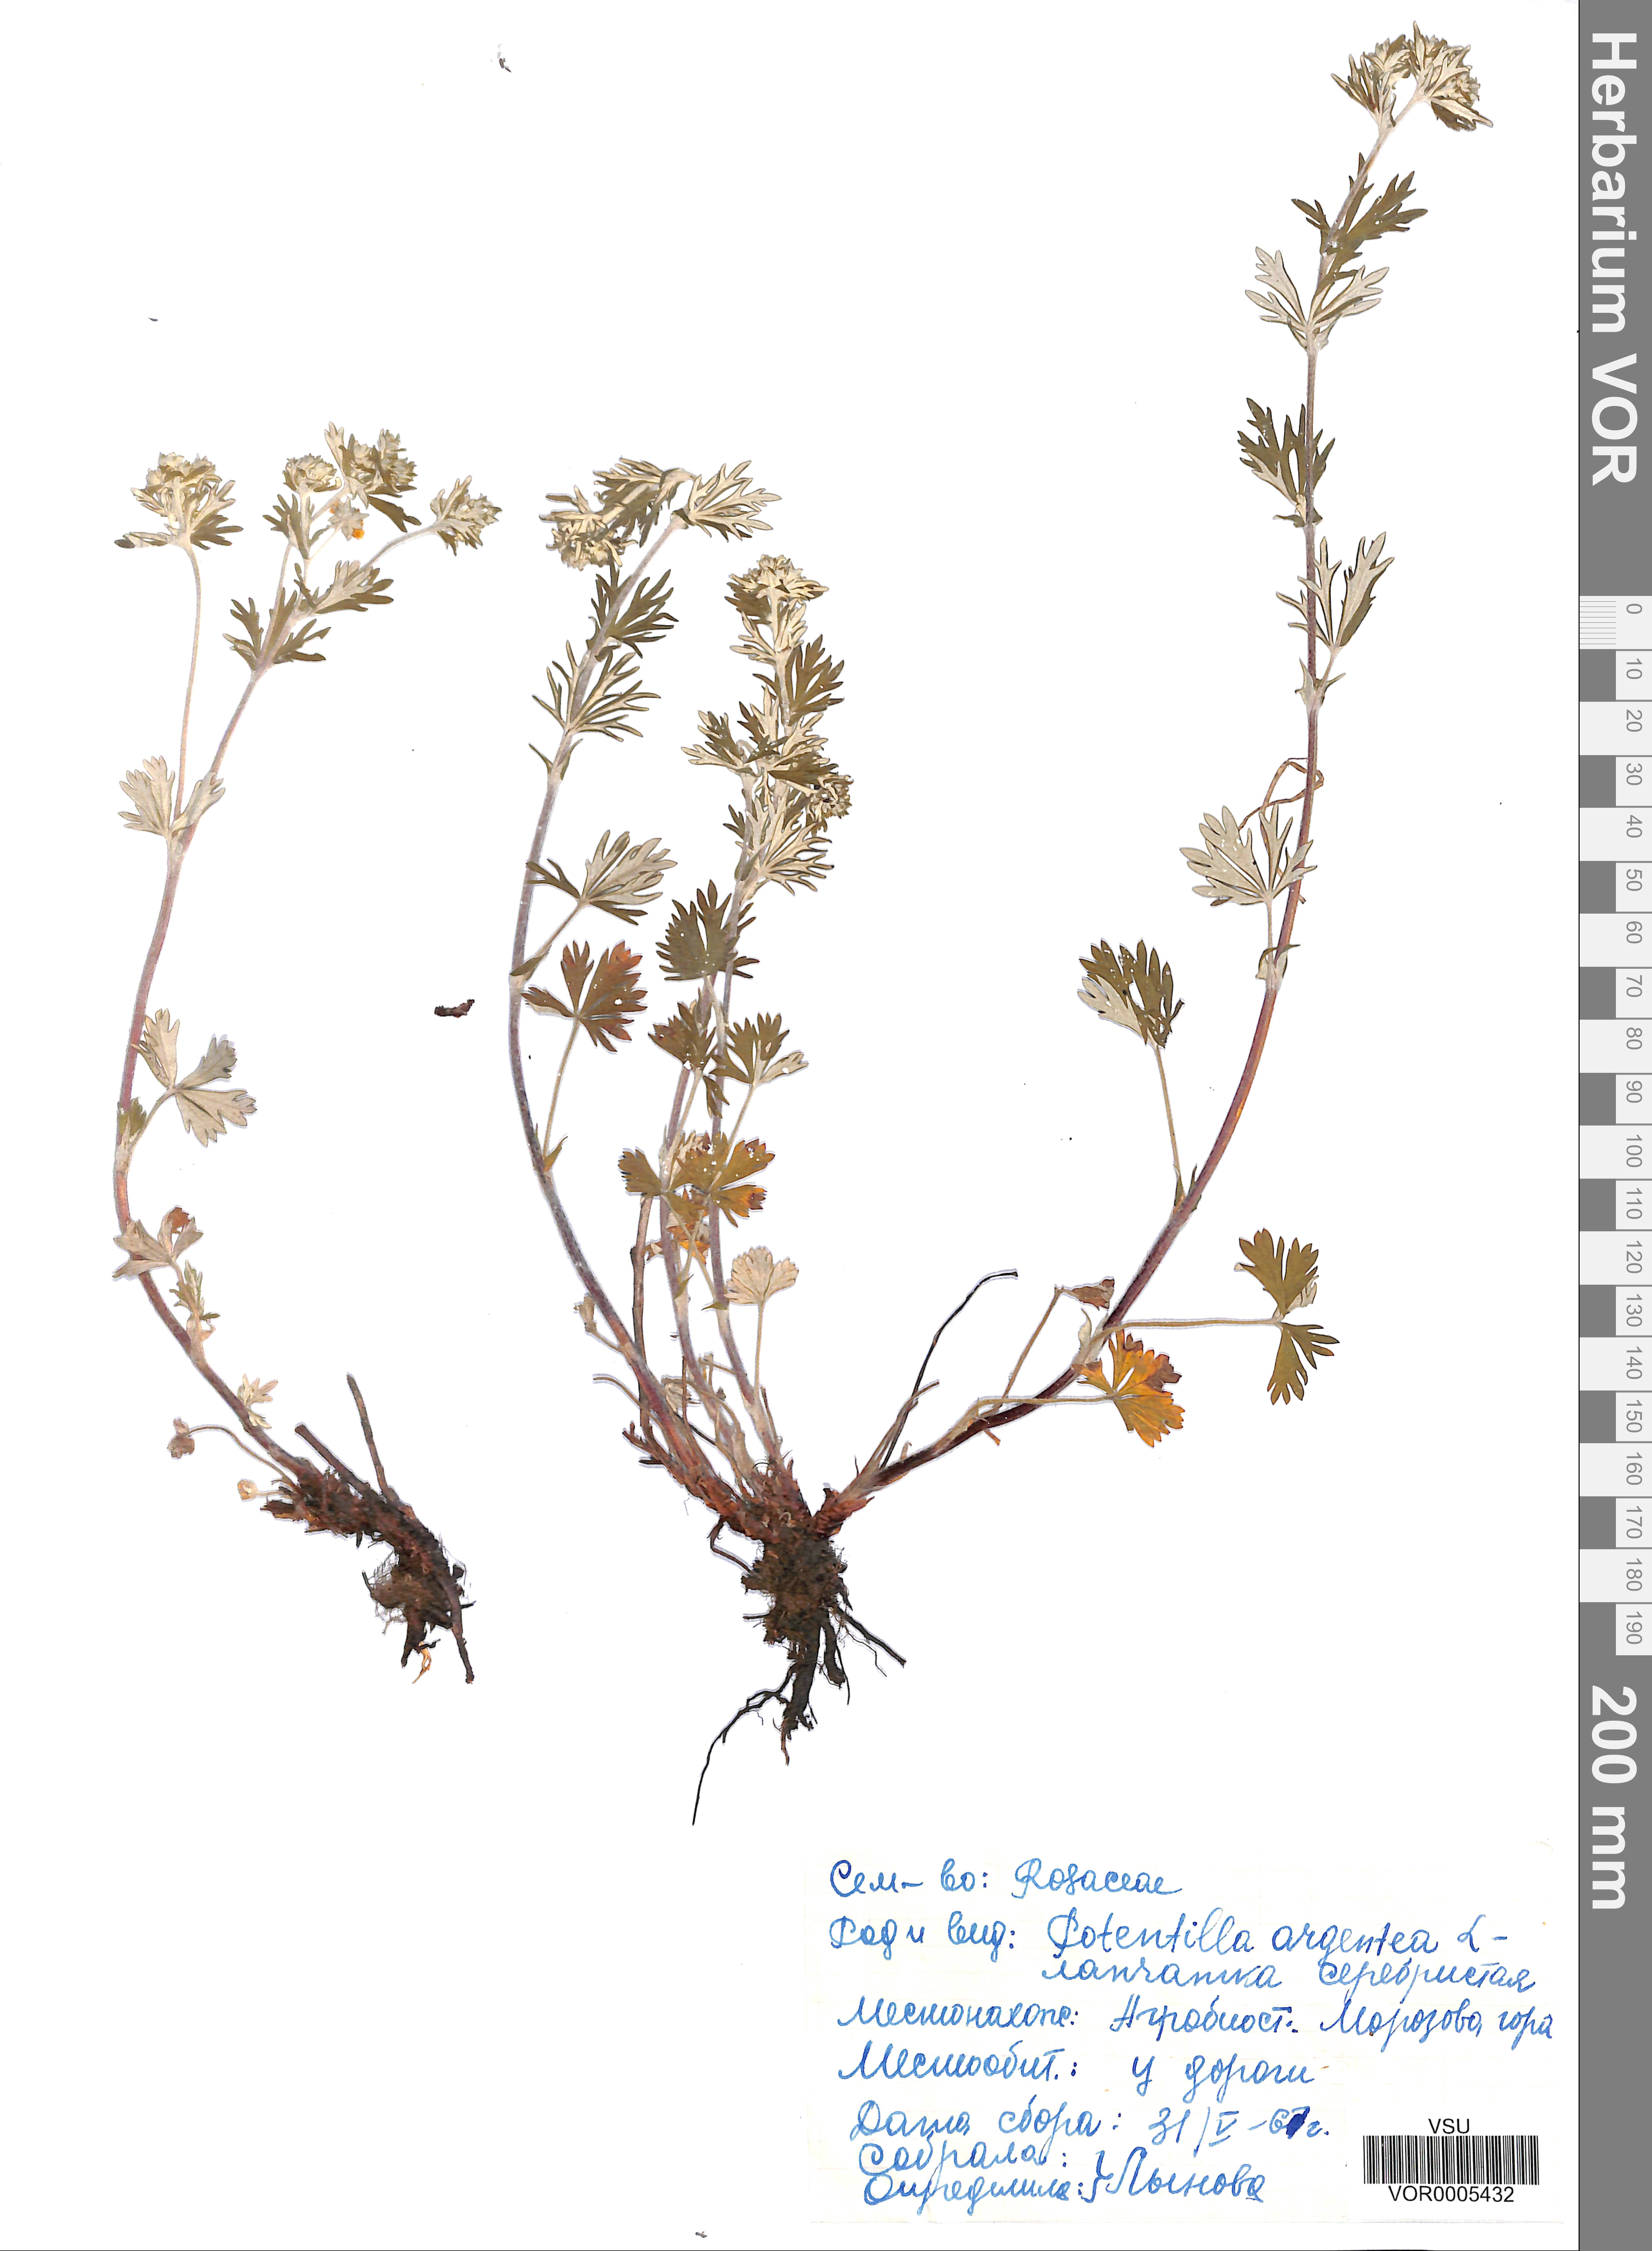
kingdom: Plantae
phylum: Tracheophyta
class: Magnoliopsida
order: Rosales
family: Rosaceae
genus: Potentilla
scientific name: Potentilla argentea
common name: Hoary cinquefoil
